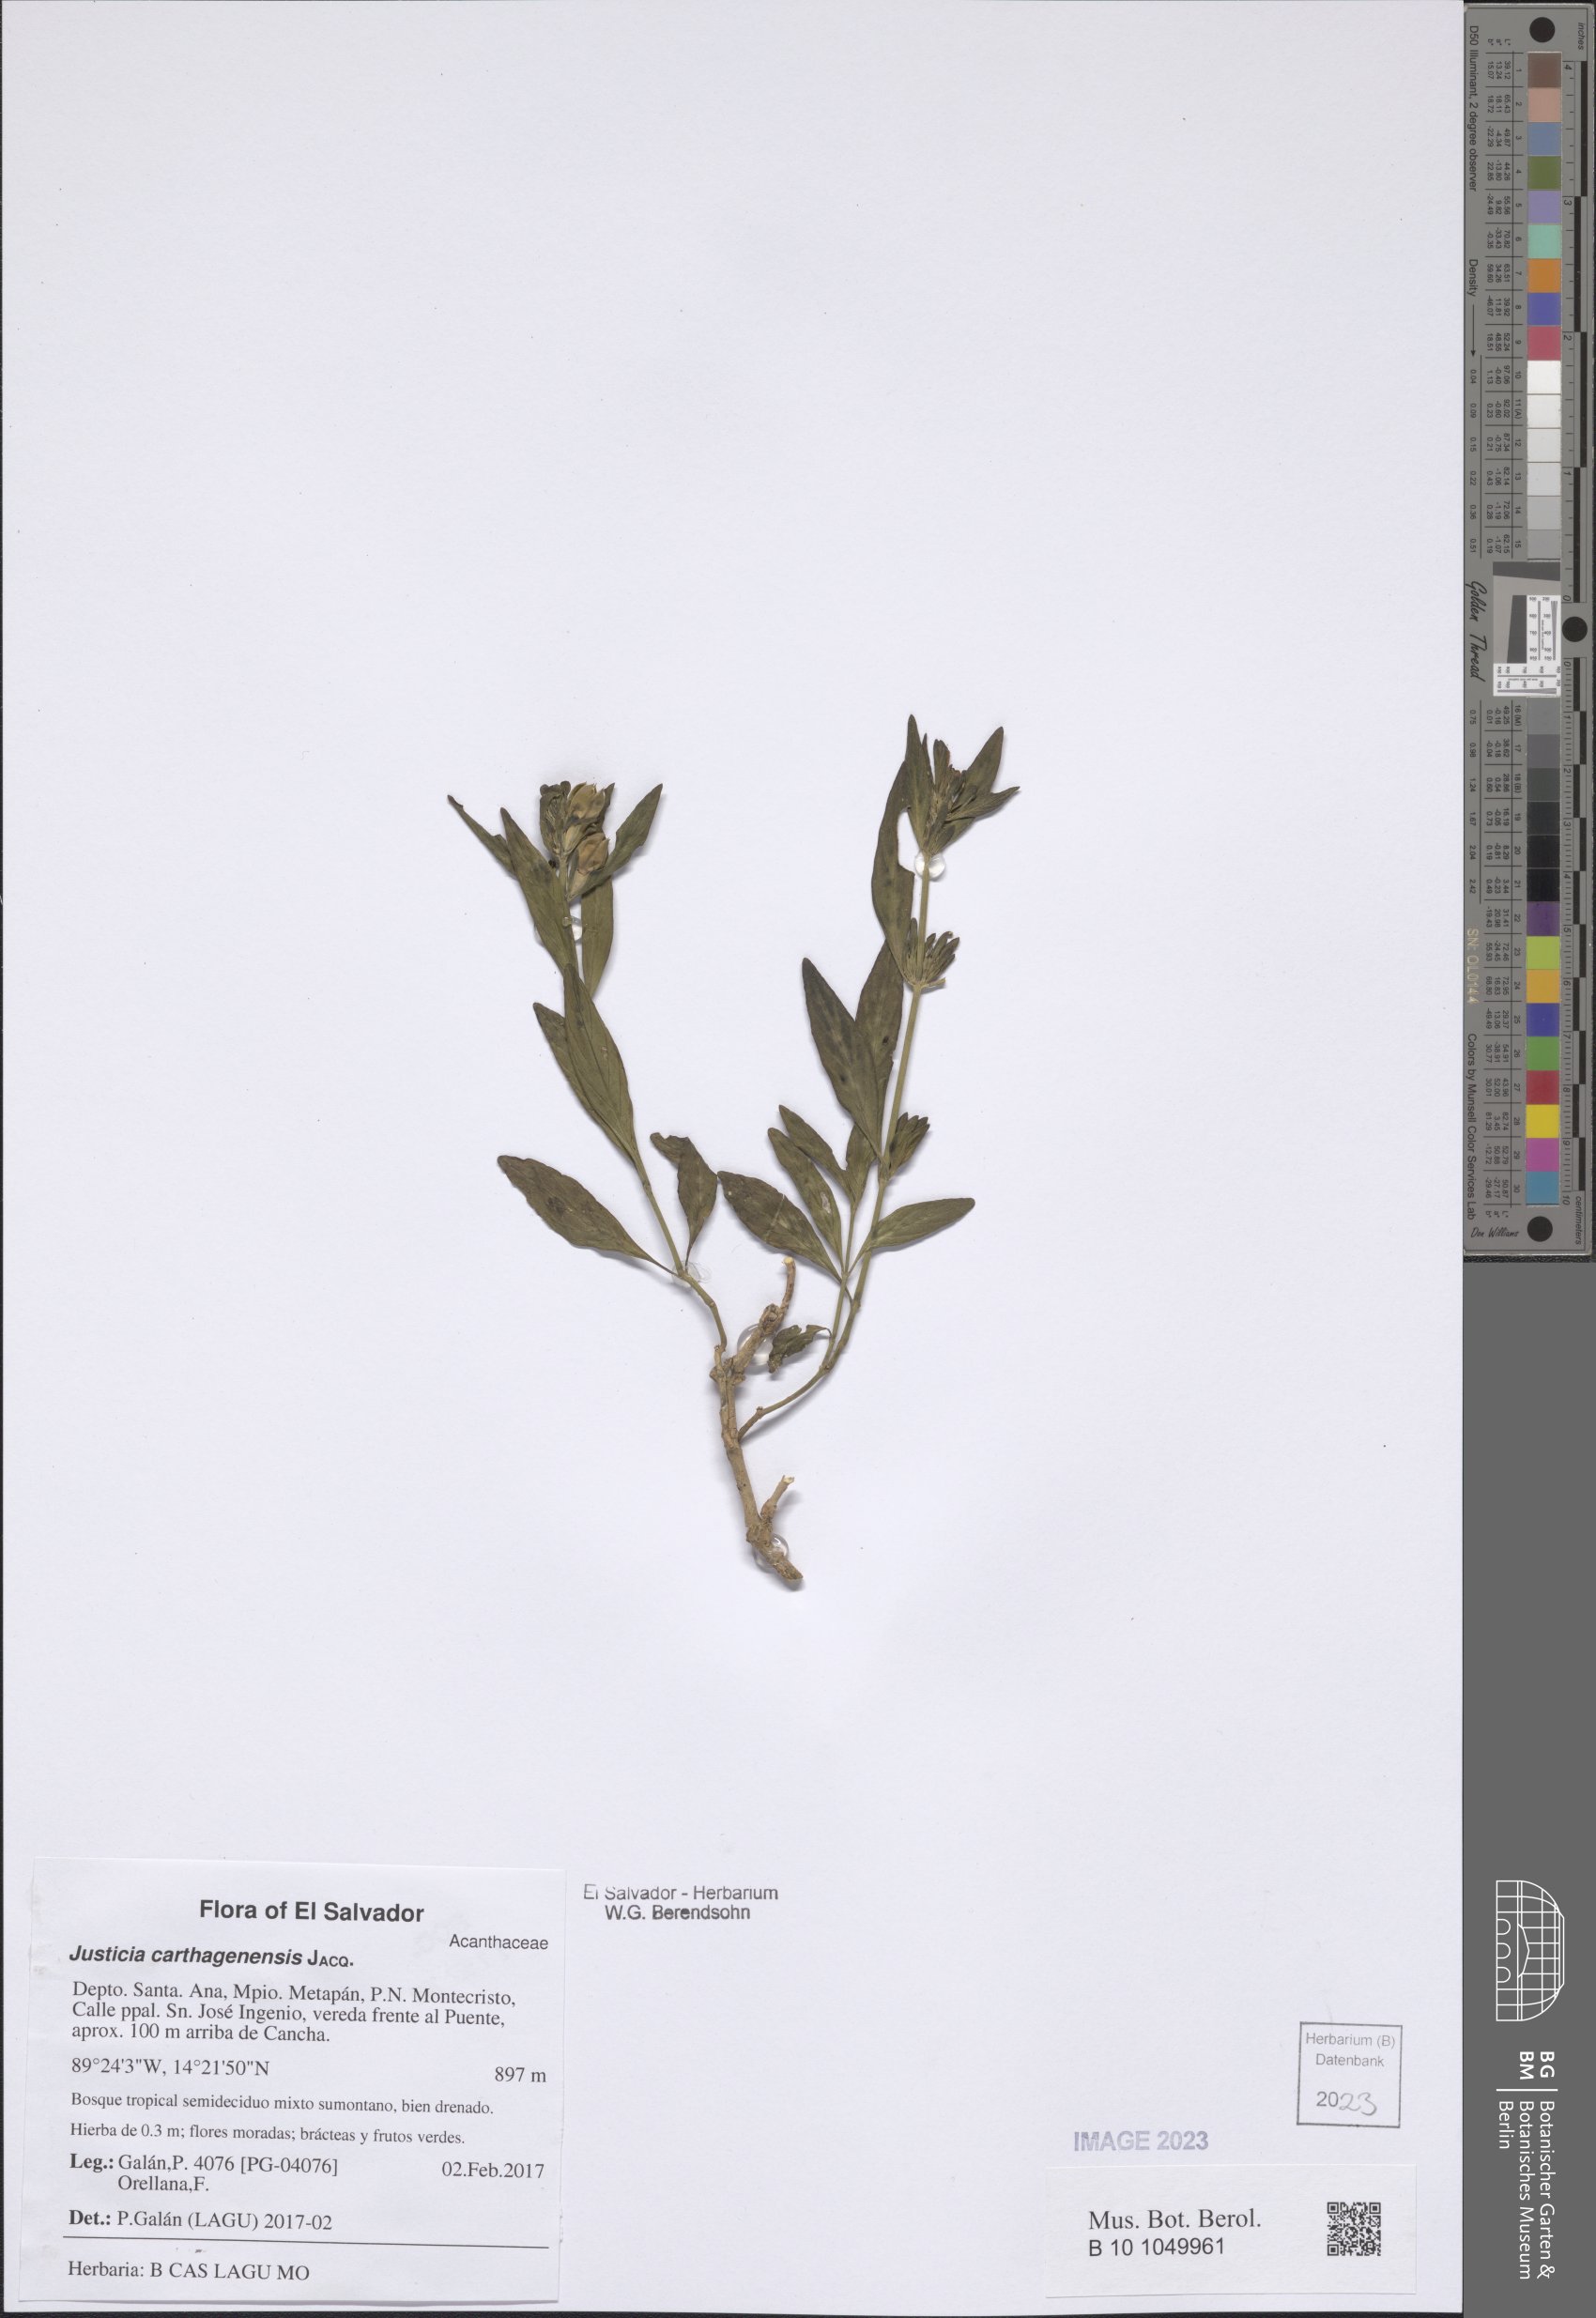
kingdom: Plantae
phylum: Tracheophyta
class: Magnoliopsida
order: Lamiales
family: Acanthaceae
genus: Justicia
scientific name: Justicia carthagenensis
